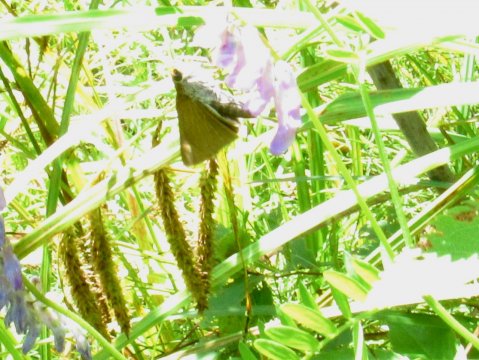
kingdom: Animalia
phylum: Arthropoda
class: Insecta
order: Lepidoptera
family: Hesperiidae
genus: Euphyes
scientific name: Euphyes bimacula
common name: Two-spotted Skipper
